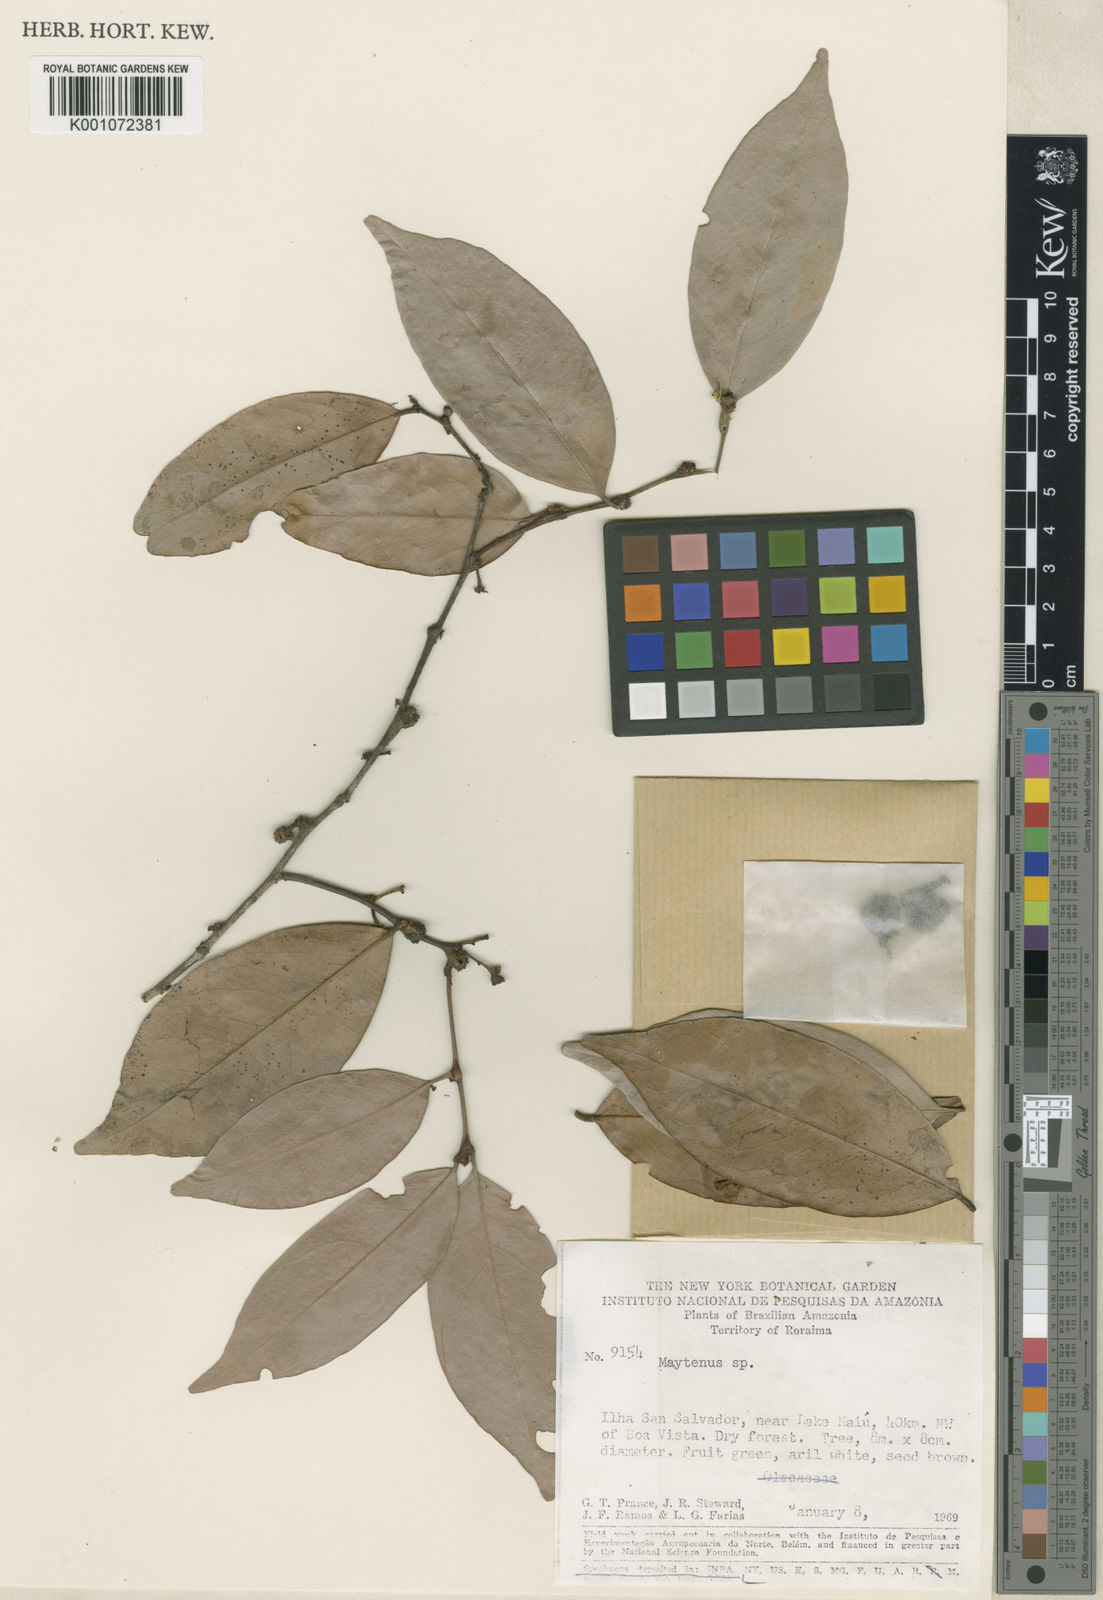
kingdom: Plantae
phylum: Tracheophyta
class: Magnoliopsida
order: Celastrales
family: Celastraceae
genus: Maytenus
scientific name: Maytenus
